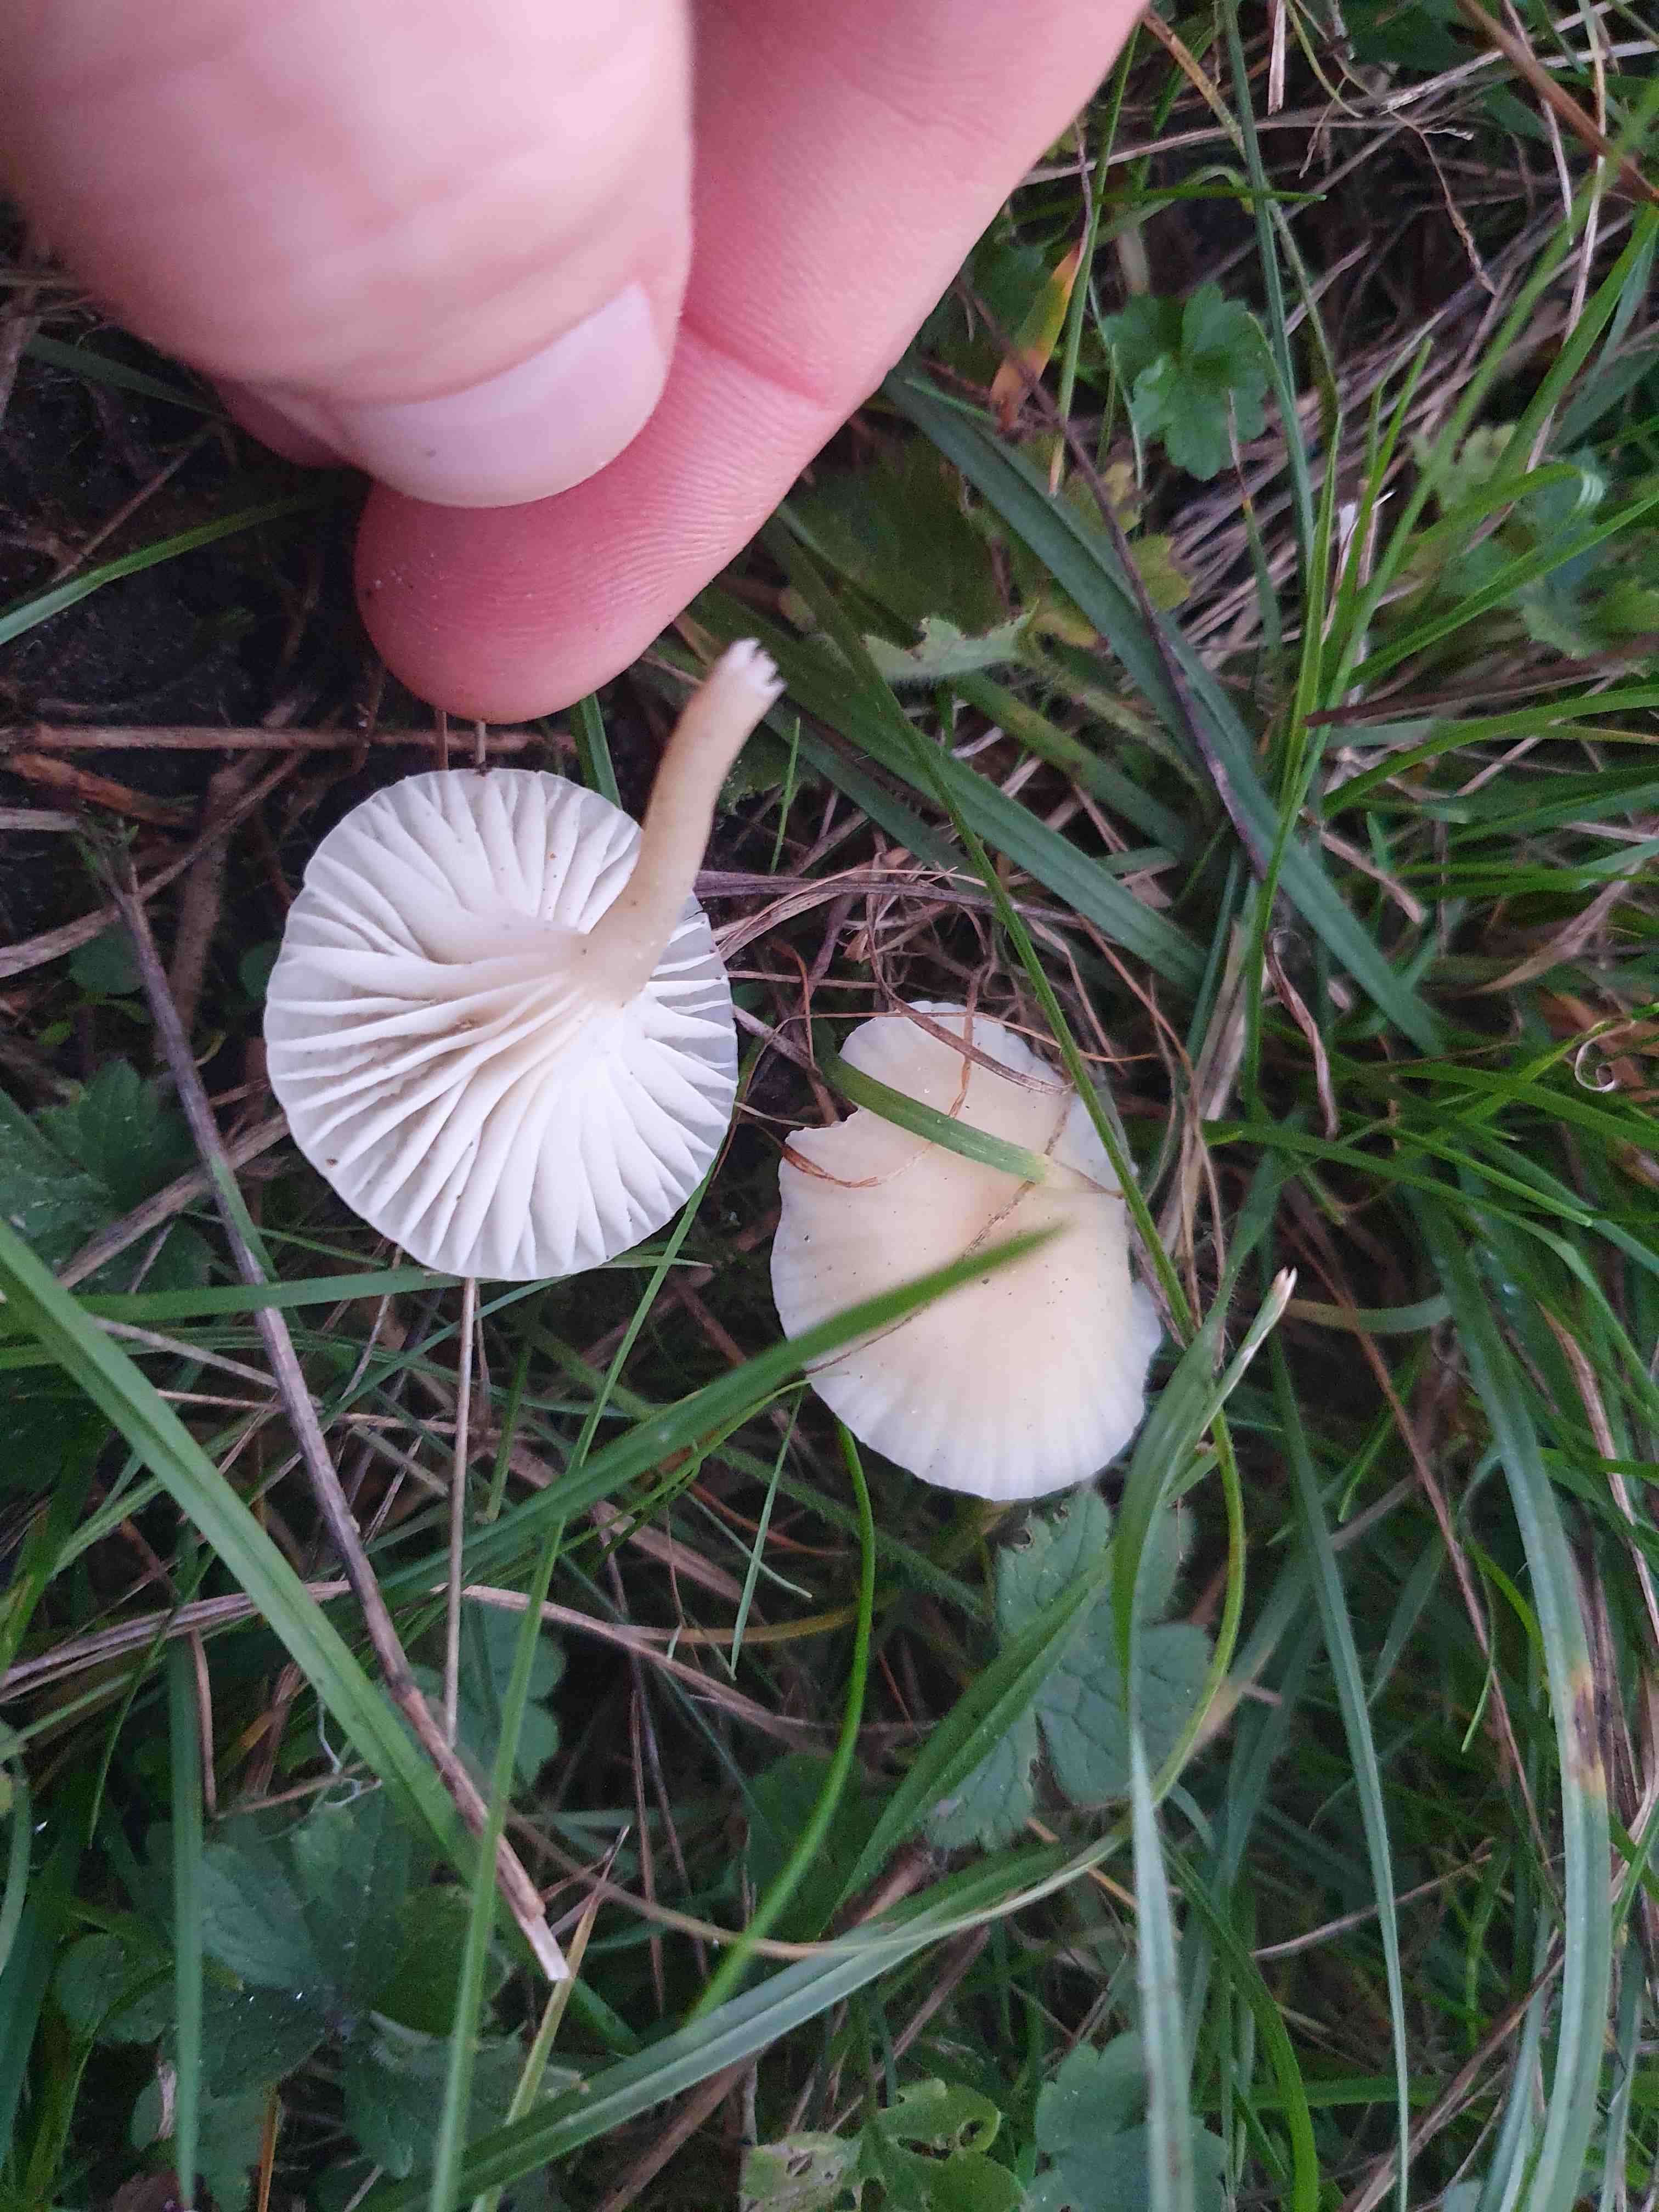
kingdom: Fungi
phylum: Basidiomycota
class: Agaricomycetes
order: Agaricales
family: Hygrophoraceae
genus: Cuphophyllus
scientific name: Cuphophyllus russocoriaceus
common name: ruslæder-vokshat
